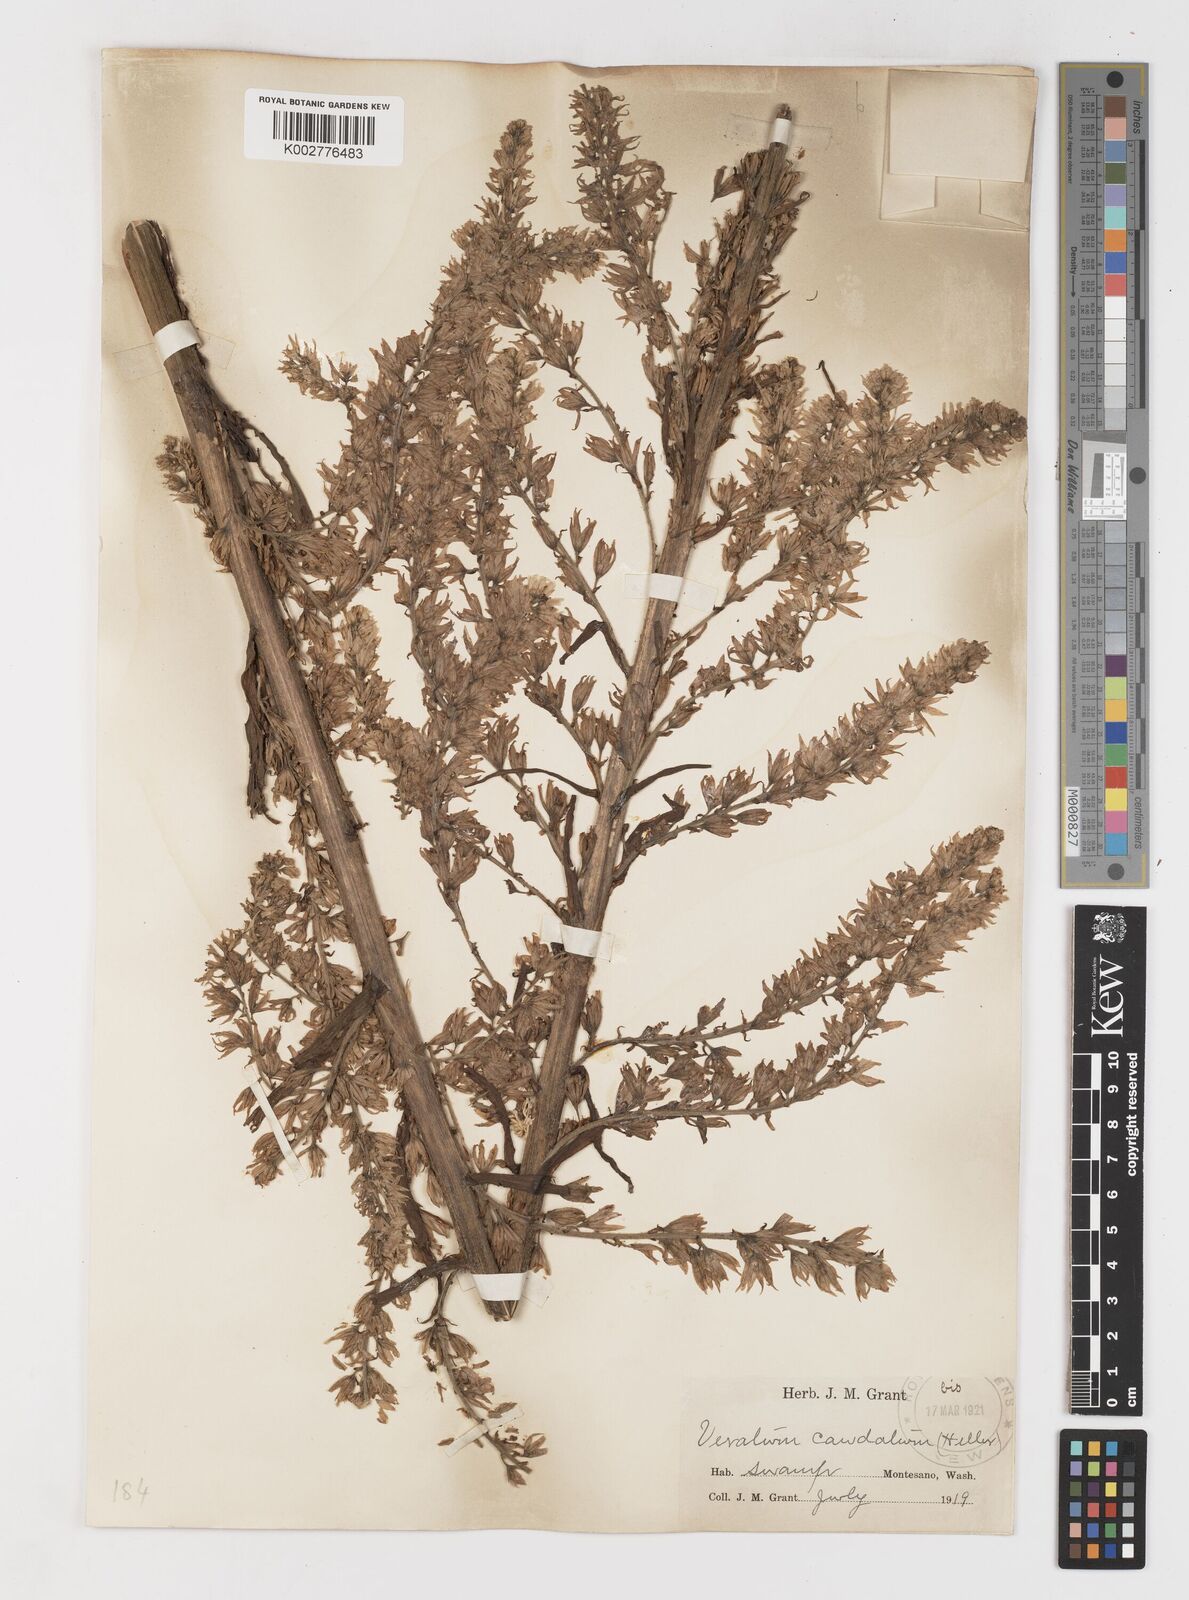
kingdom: Plantae
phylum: Tracheophyta
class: Liliopsida
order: Liliales
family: Melanthiaceae
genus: Veratrum
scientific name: Veratrum californicum
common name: California veratrum
